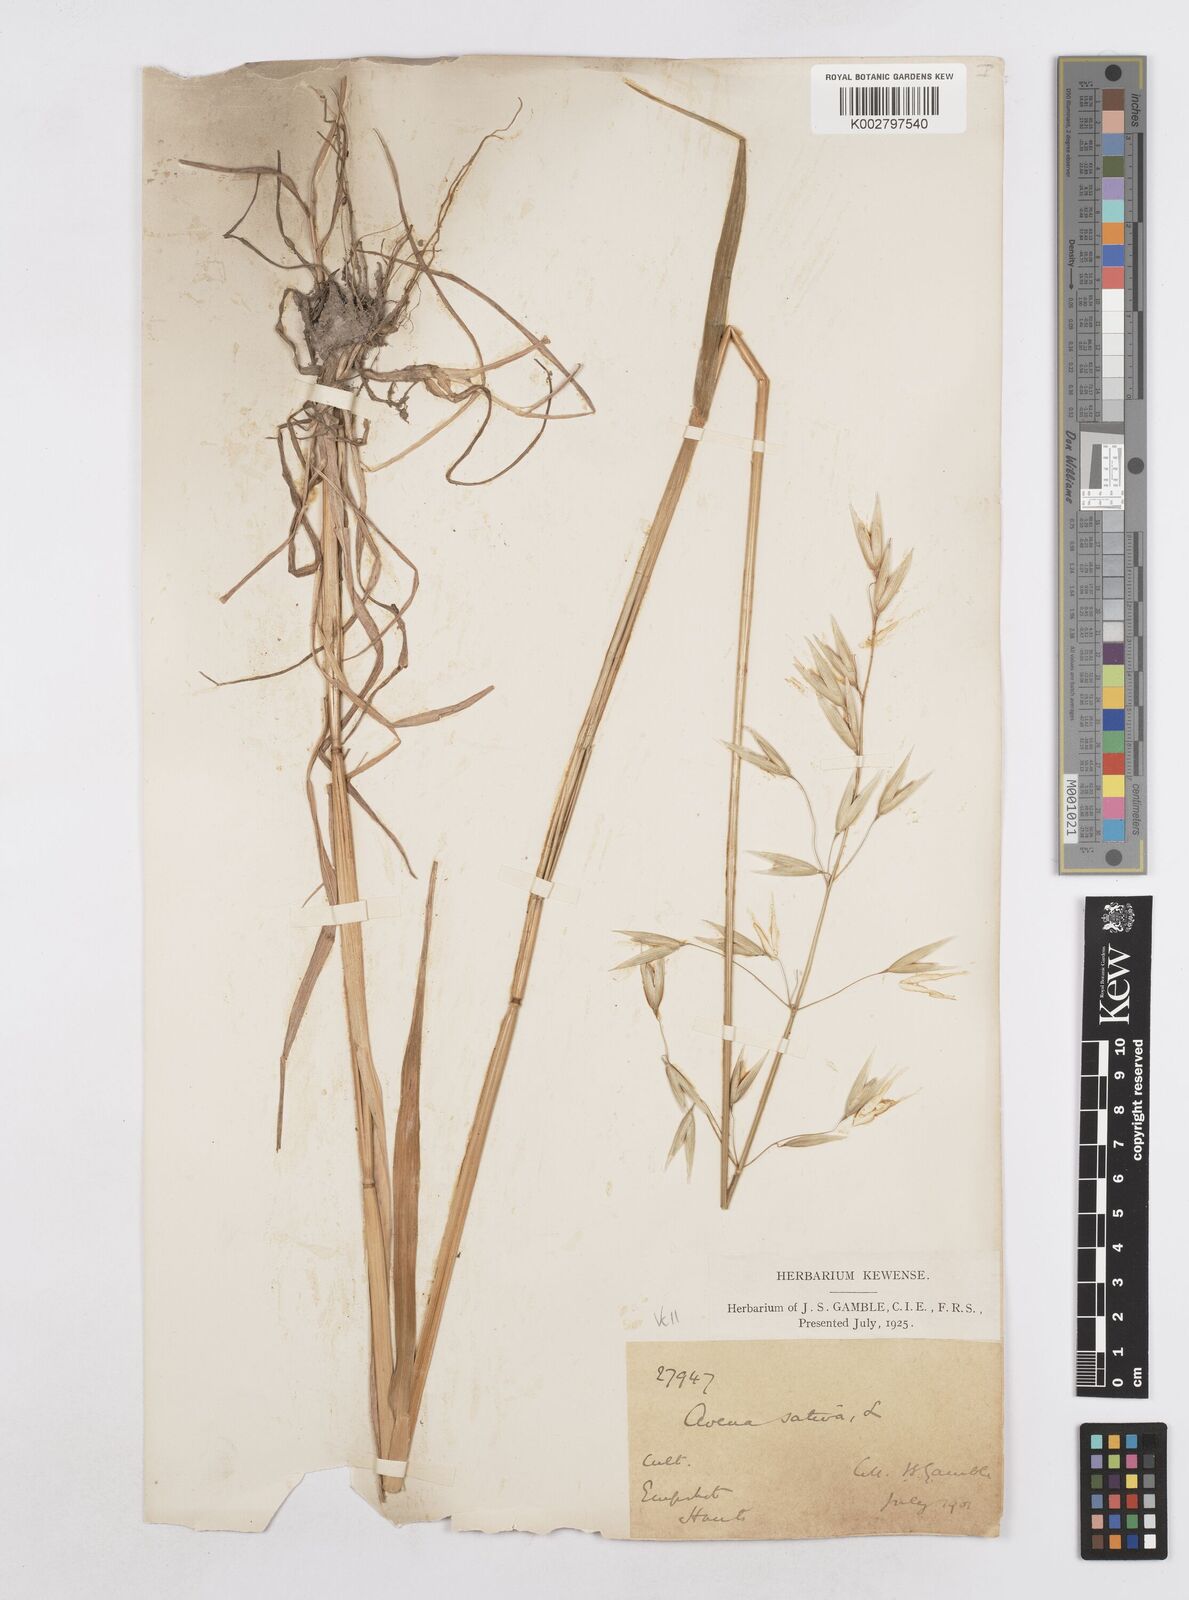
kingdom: Plantae
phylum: Tracheophyta
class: Liliopsida
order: Poales
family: Poaceae
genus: Avena
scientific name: Avena sativa
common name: Oat
